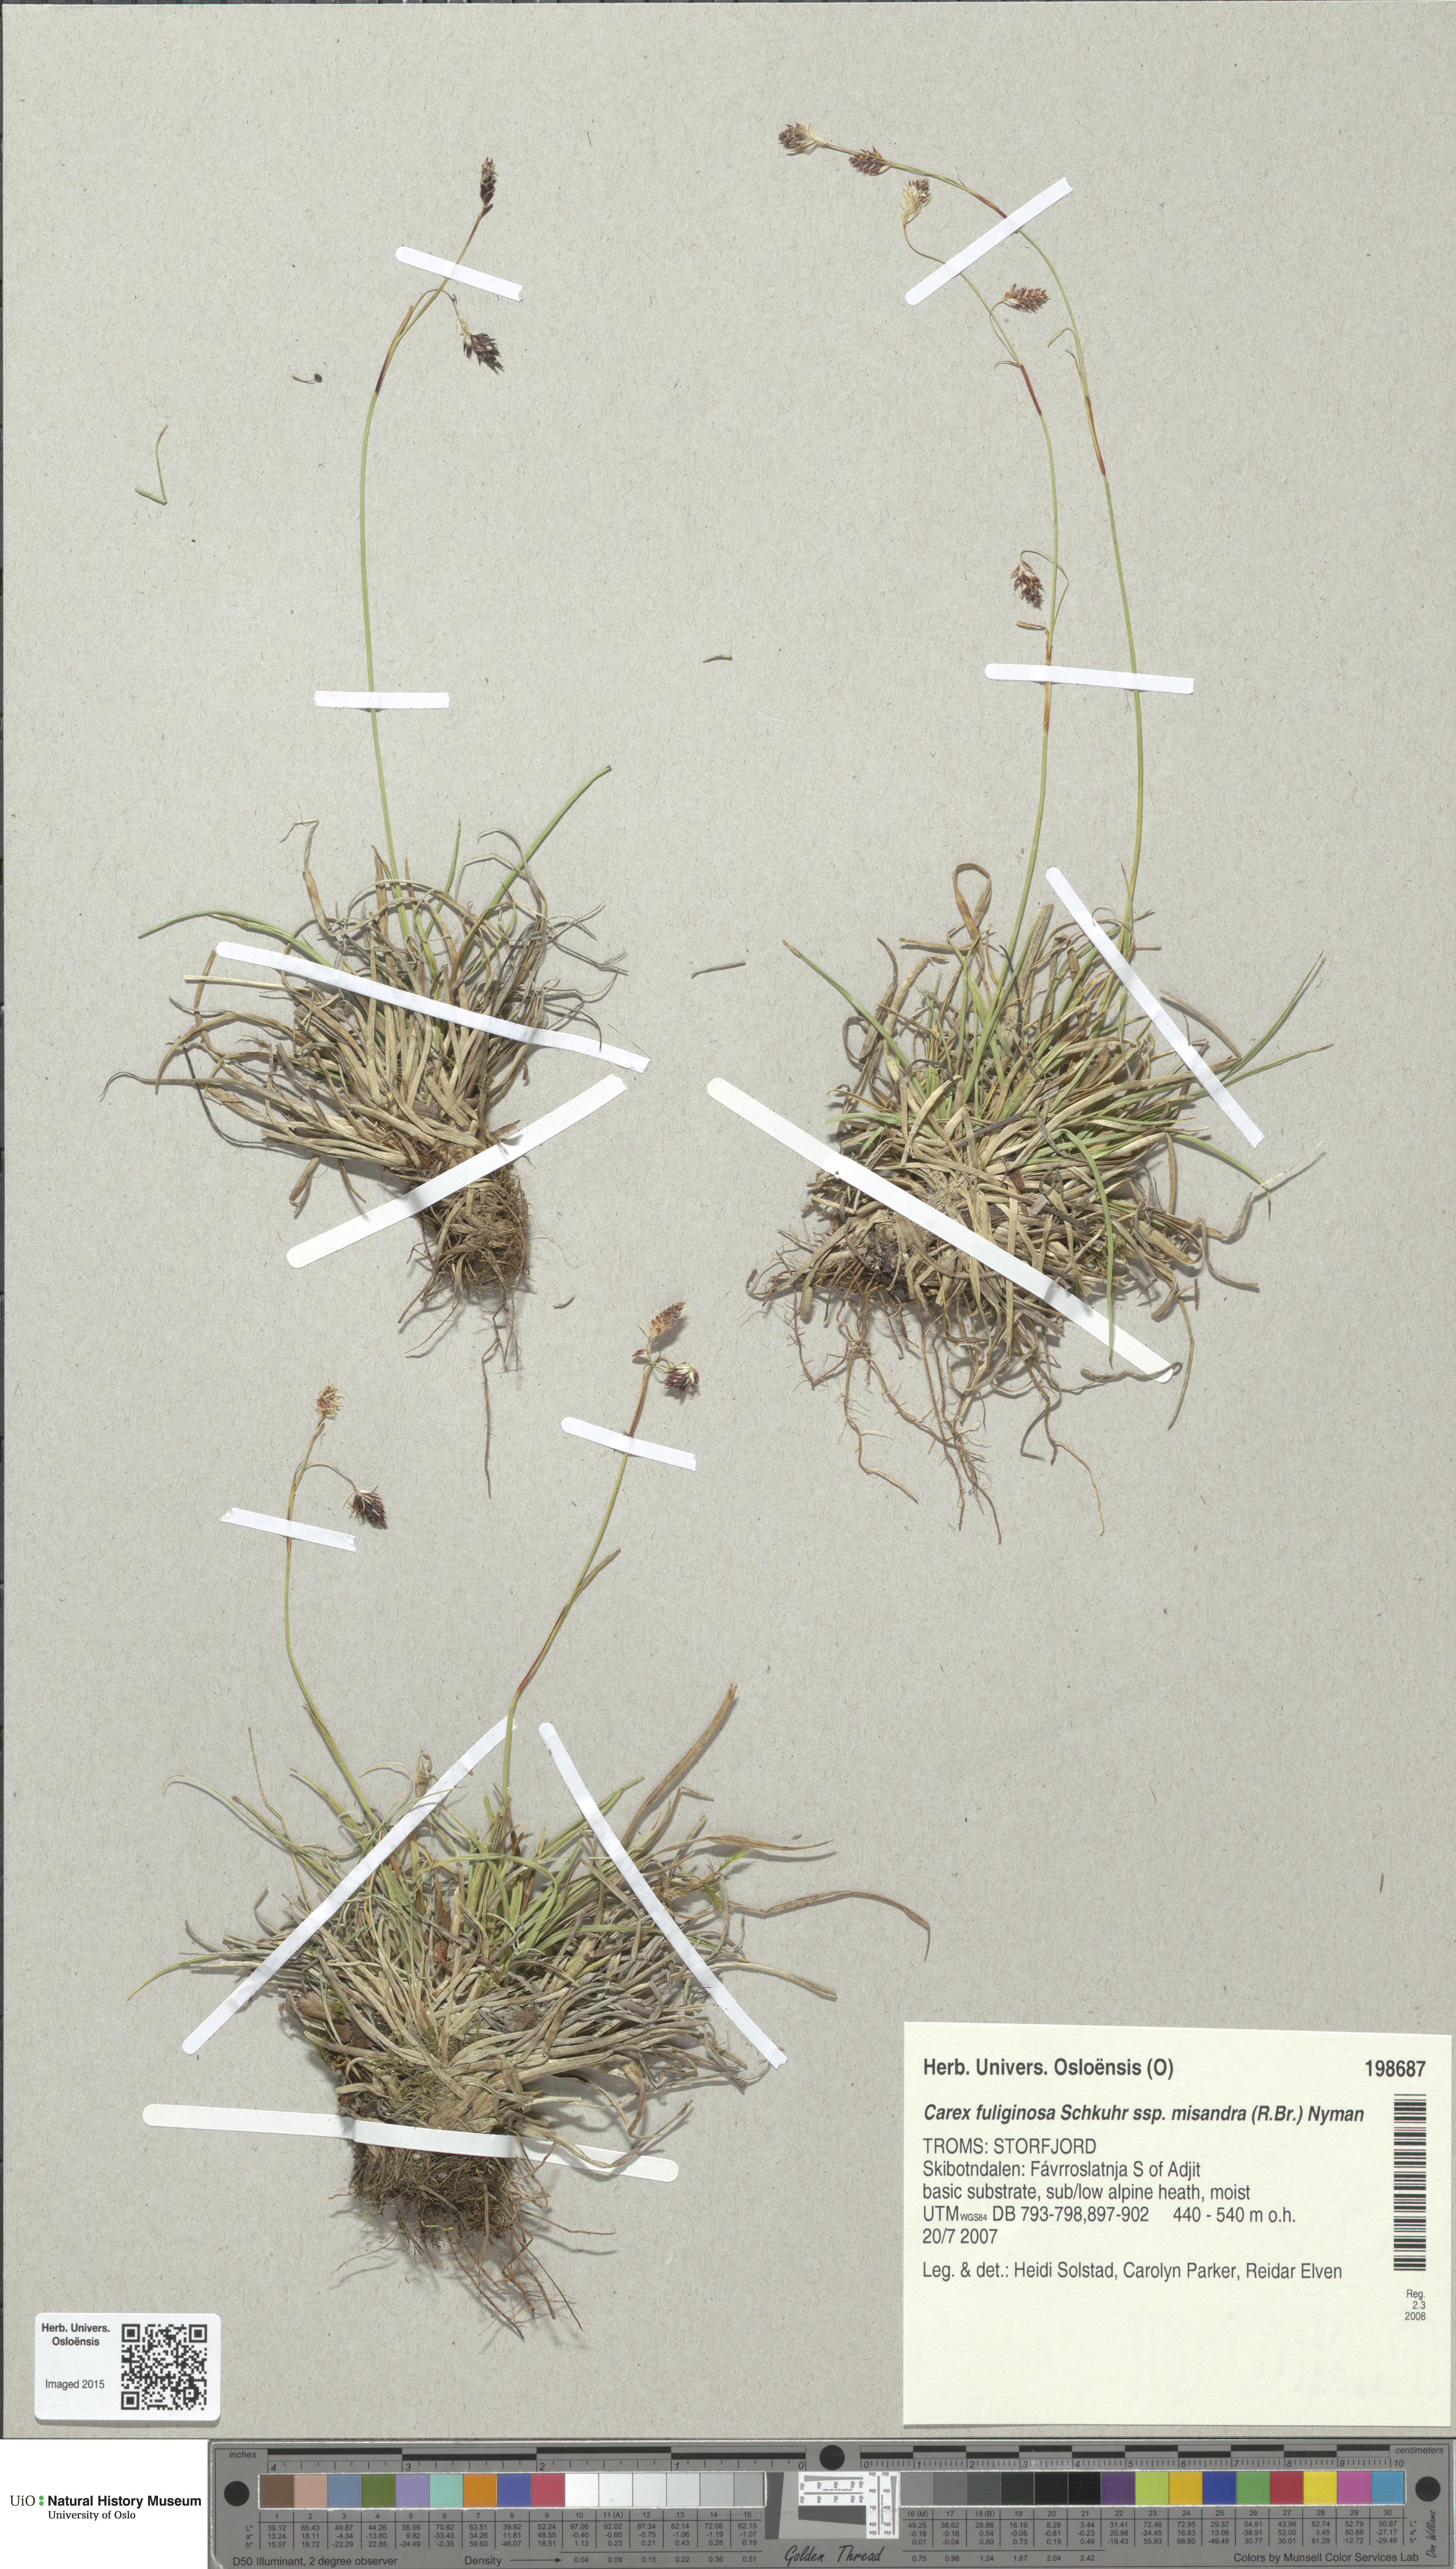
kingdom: Plantae
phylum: Tracheophyta
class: Liliopsida
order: Poales
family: Cyperaceae
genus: Carex
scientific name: Carex fuliginosa
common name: Few-flowered sedge
